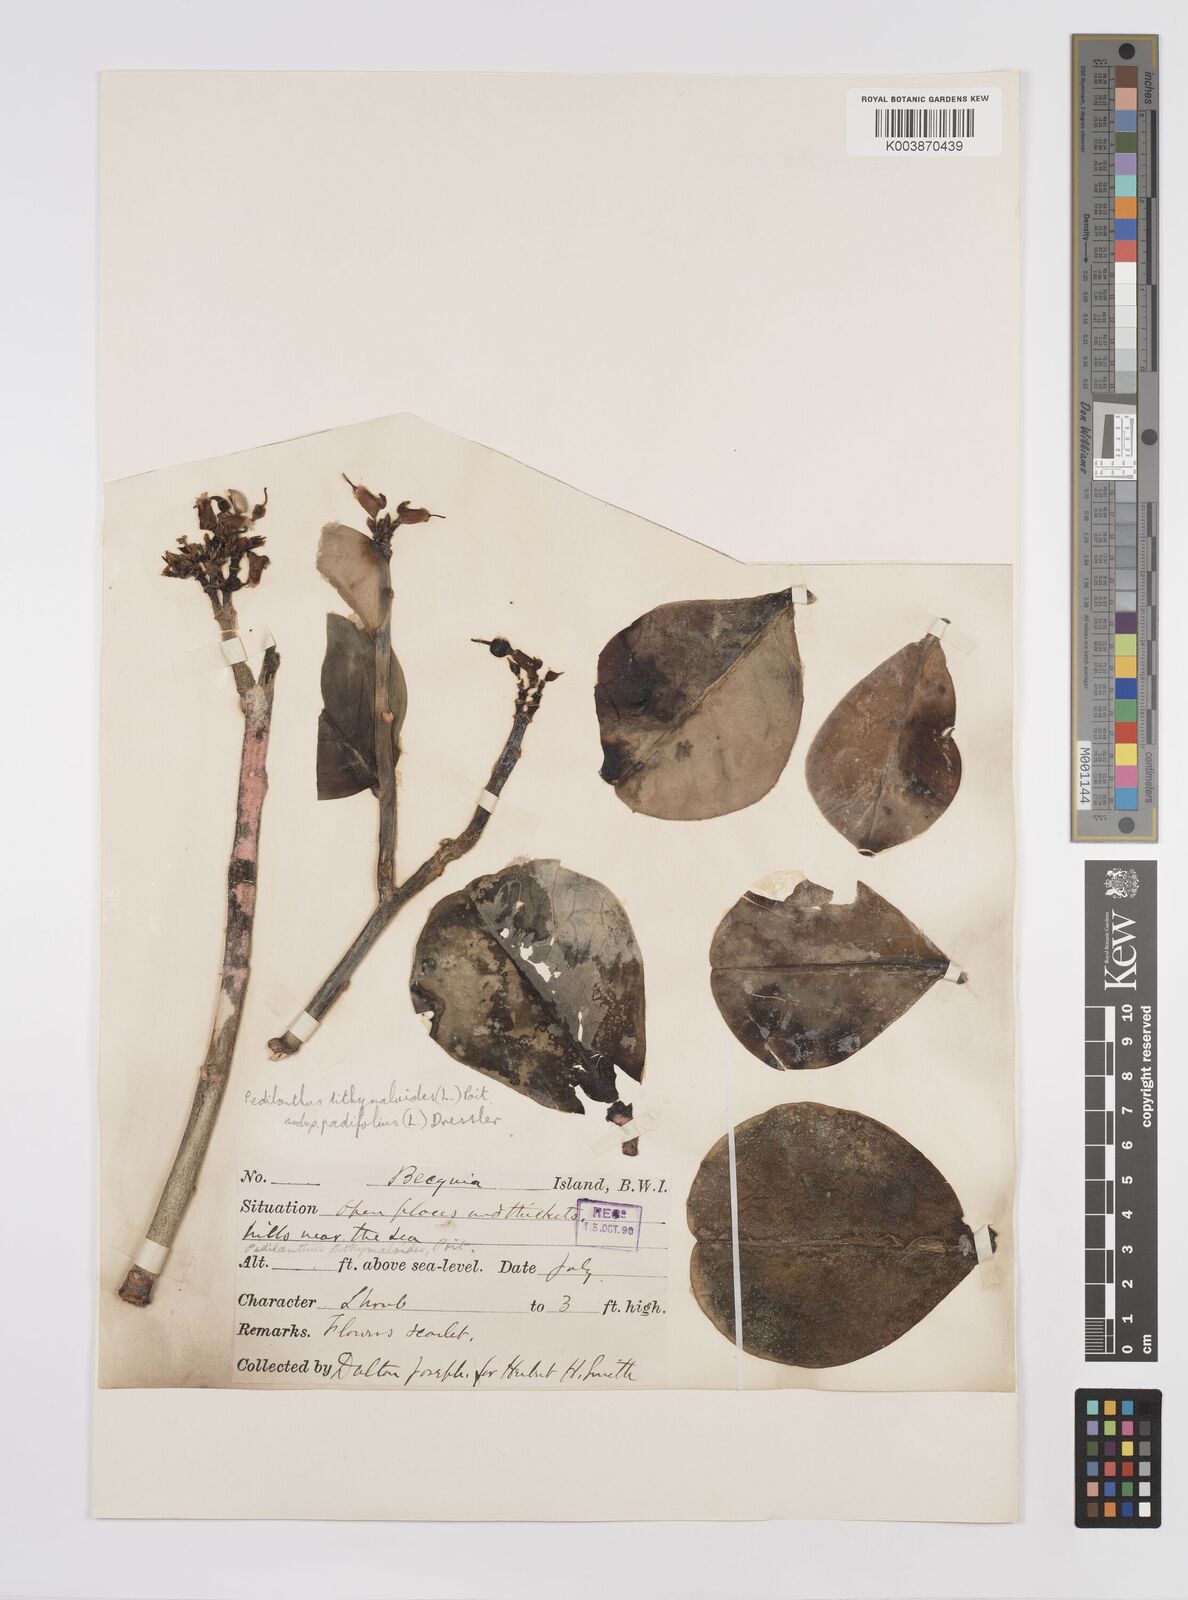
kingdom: Plantae
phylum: Tracheophyta
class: Magnoliopsida
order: Malpighiales
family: Euphorbiaceae
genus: Euphorbia
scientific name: Euphorbia tithymaloides
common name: Slipperplant
